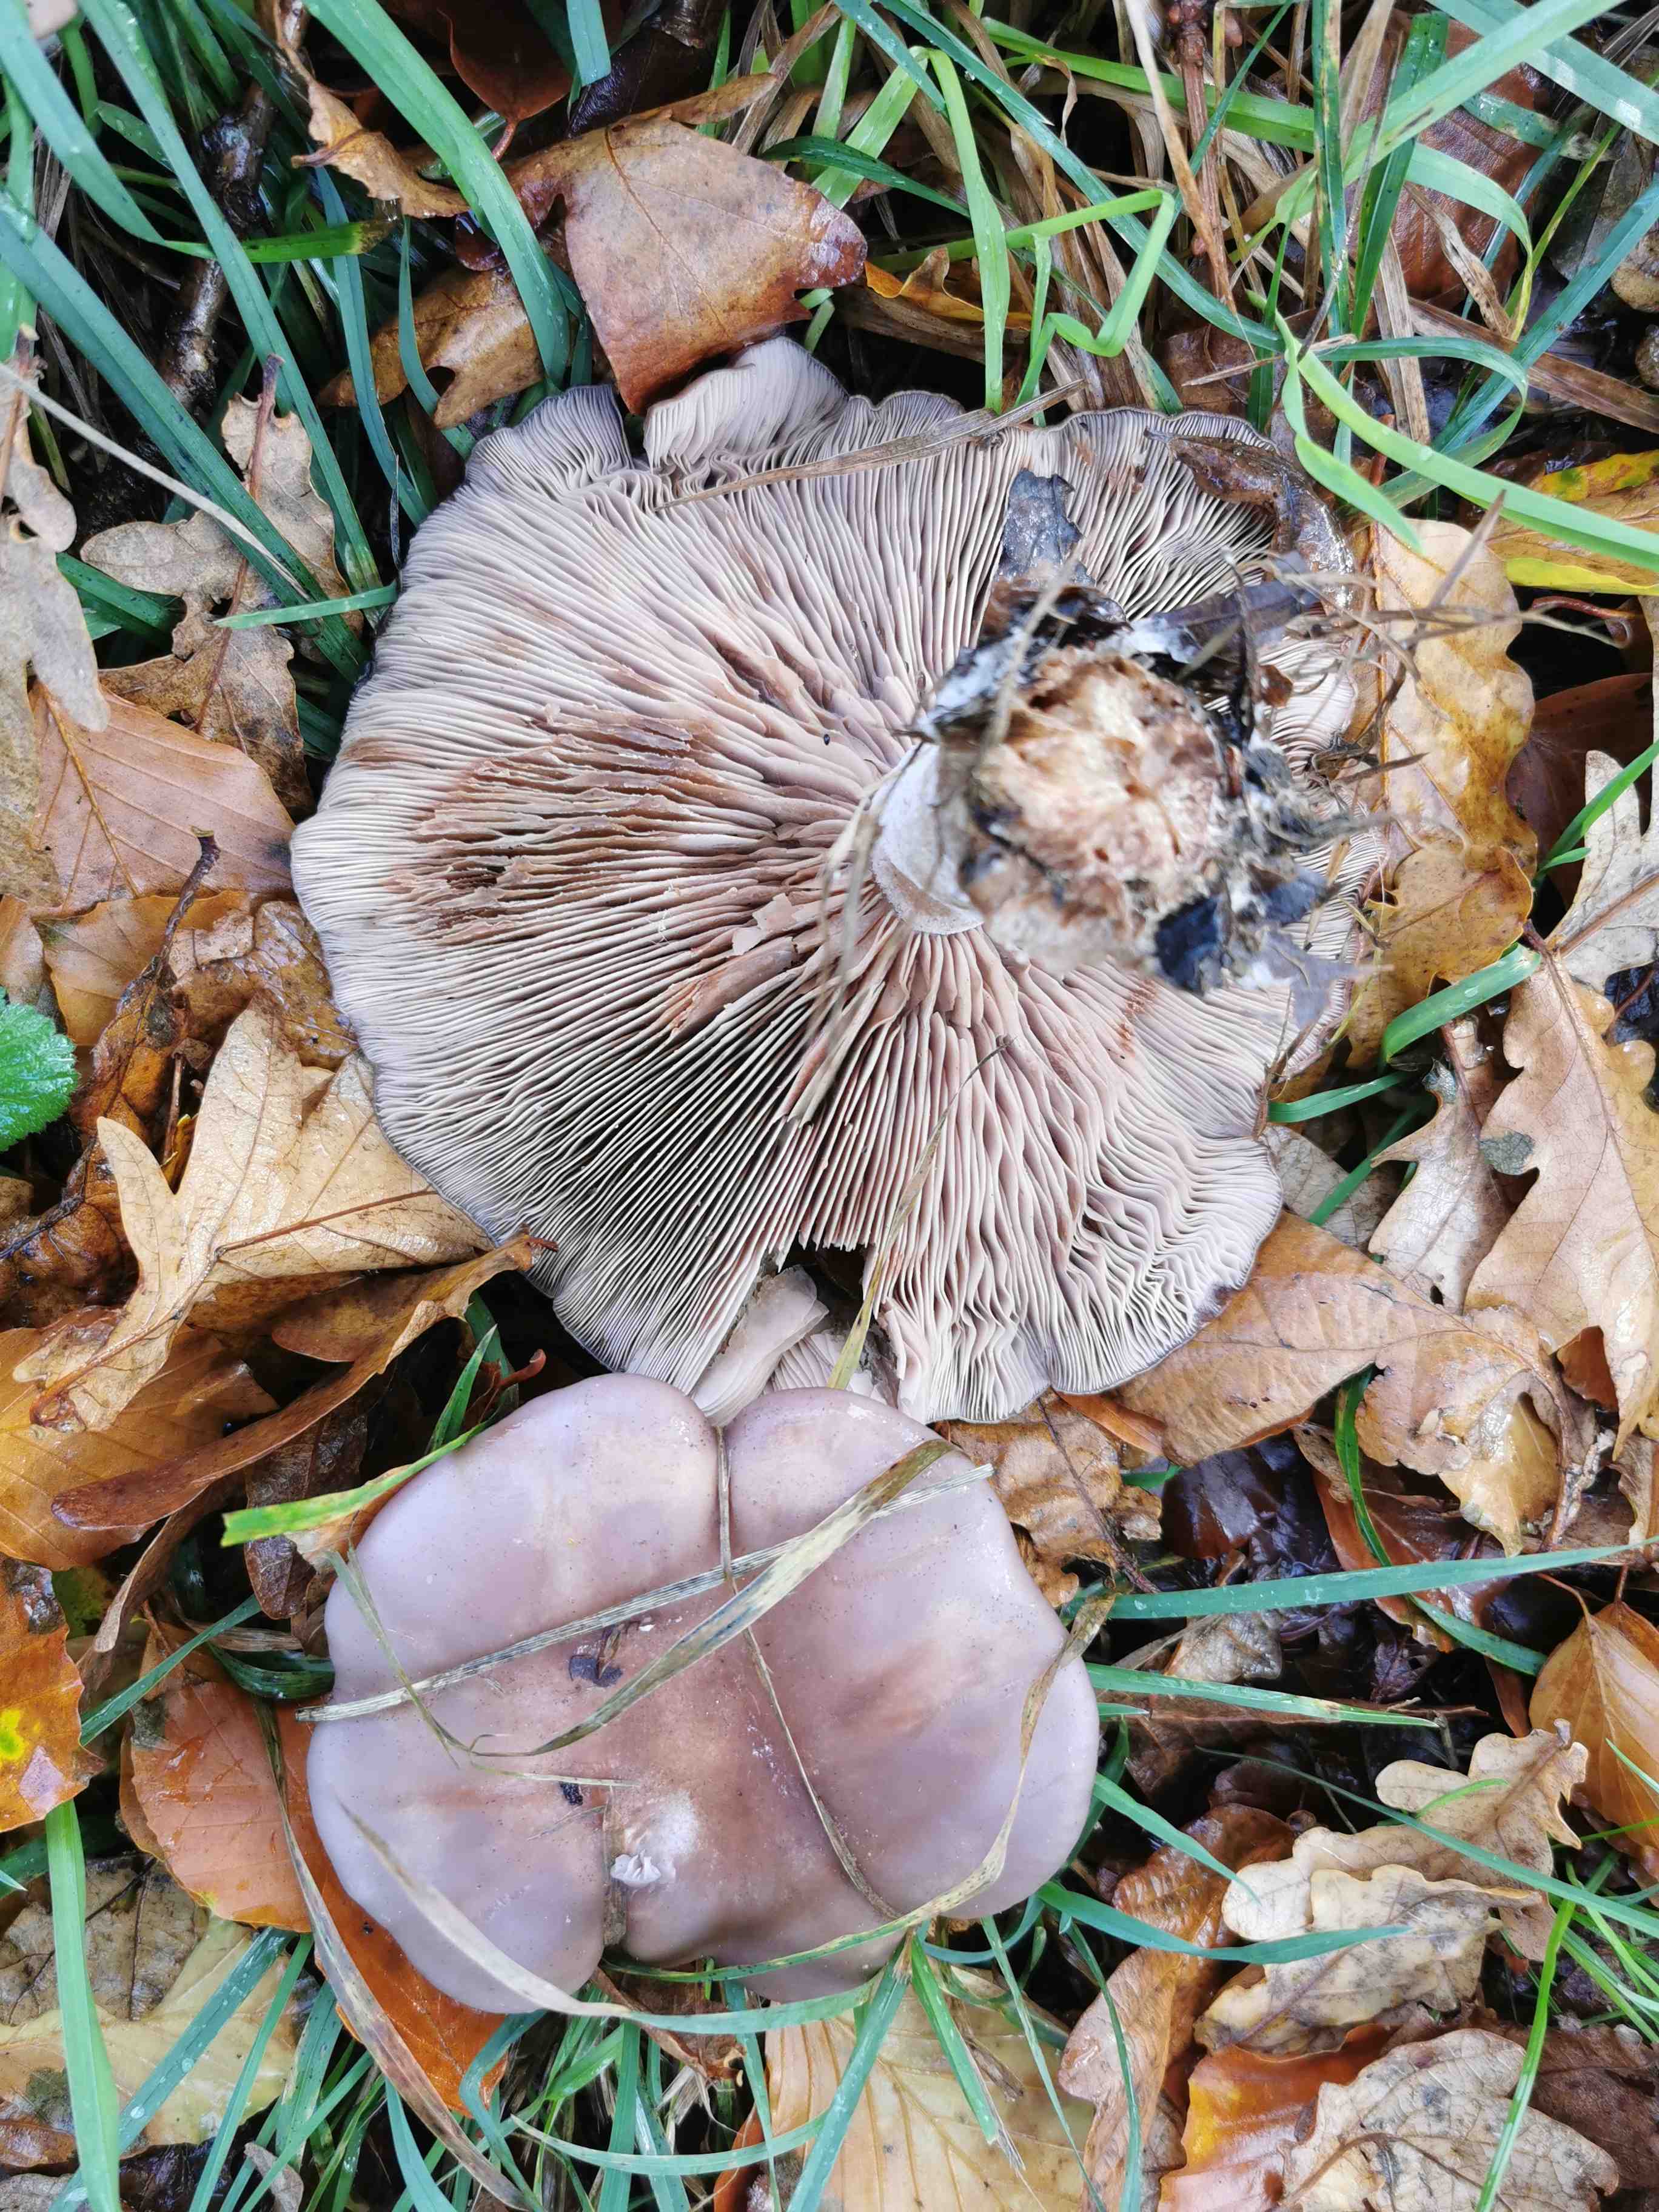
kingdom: Fungi
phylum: Basidiomycota
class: Agaricomycetes
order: Agaricales
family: Tricholomataceae
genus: Lepista
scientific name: Lepista nuda
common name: violet hekseringshat
